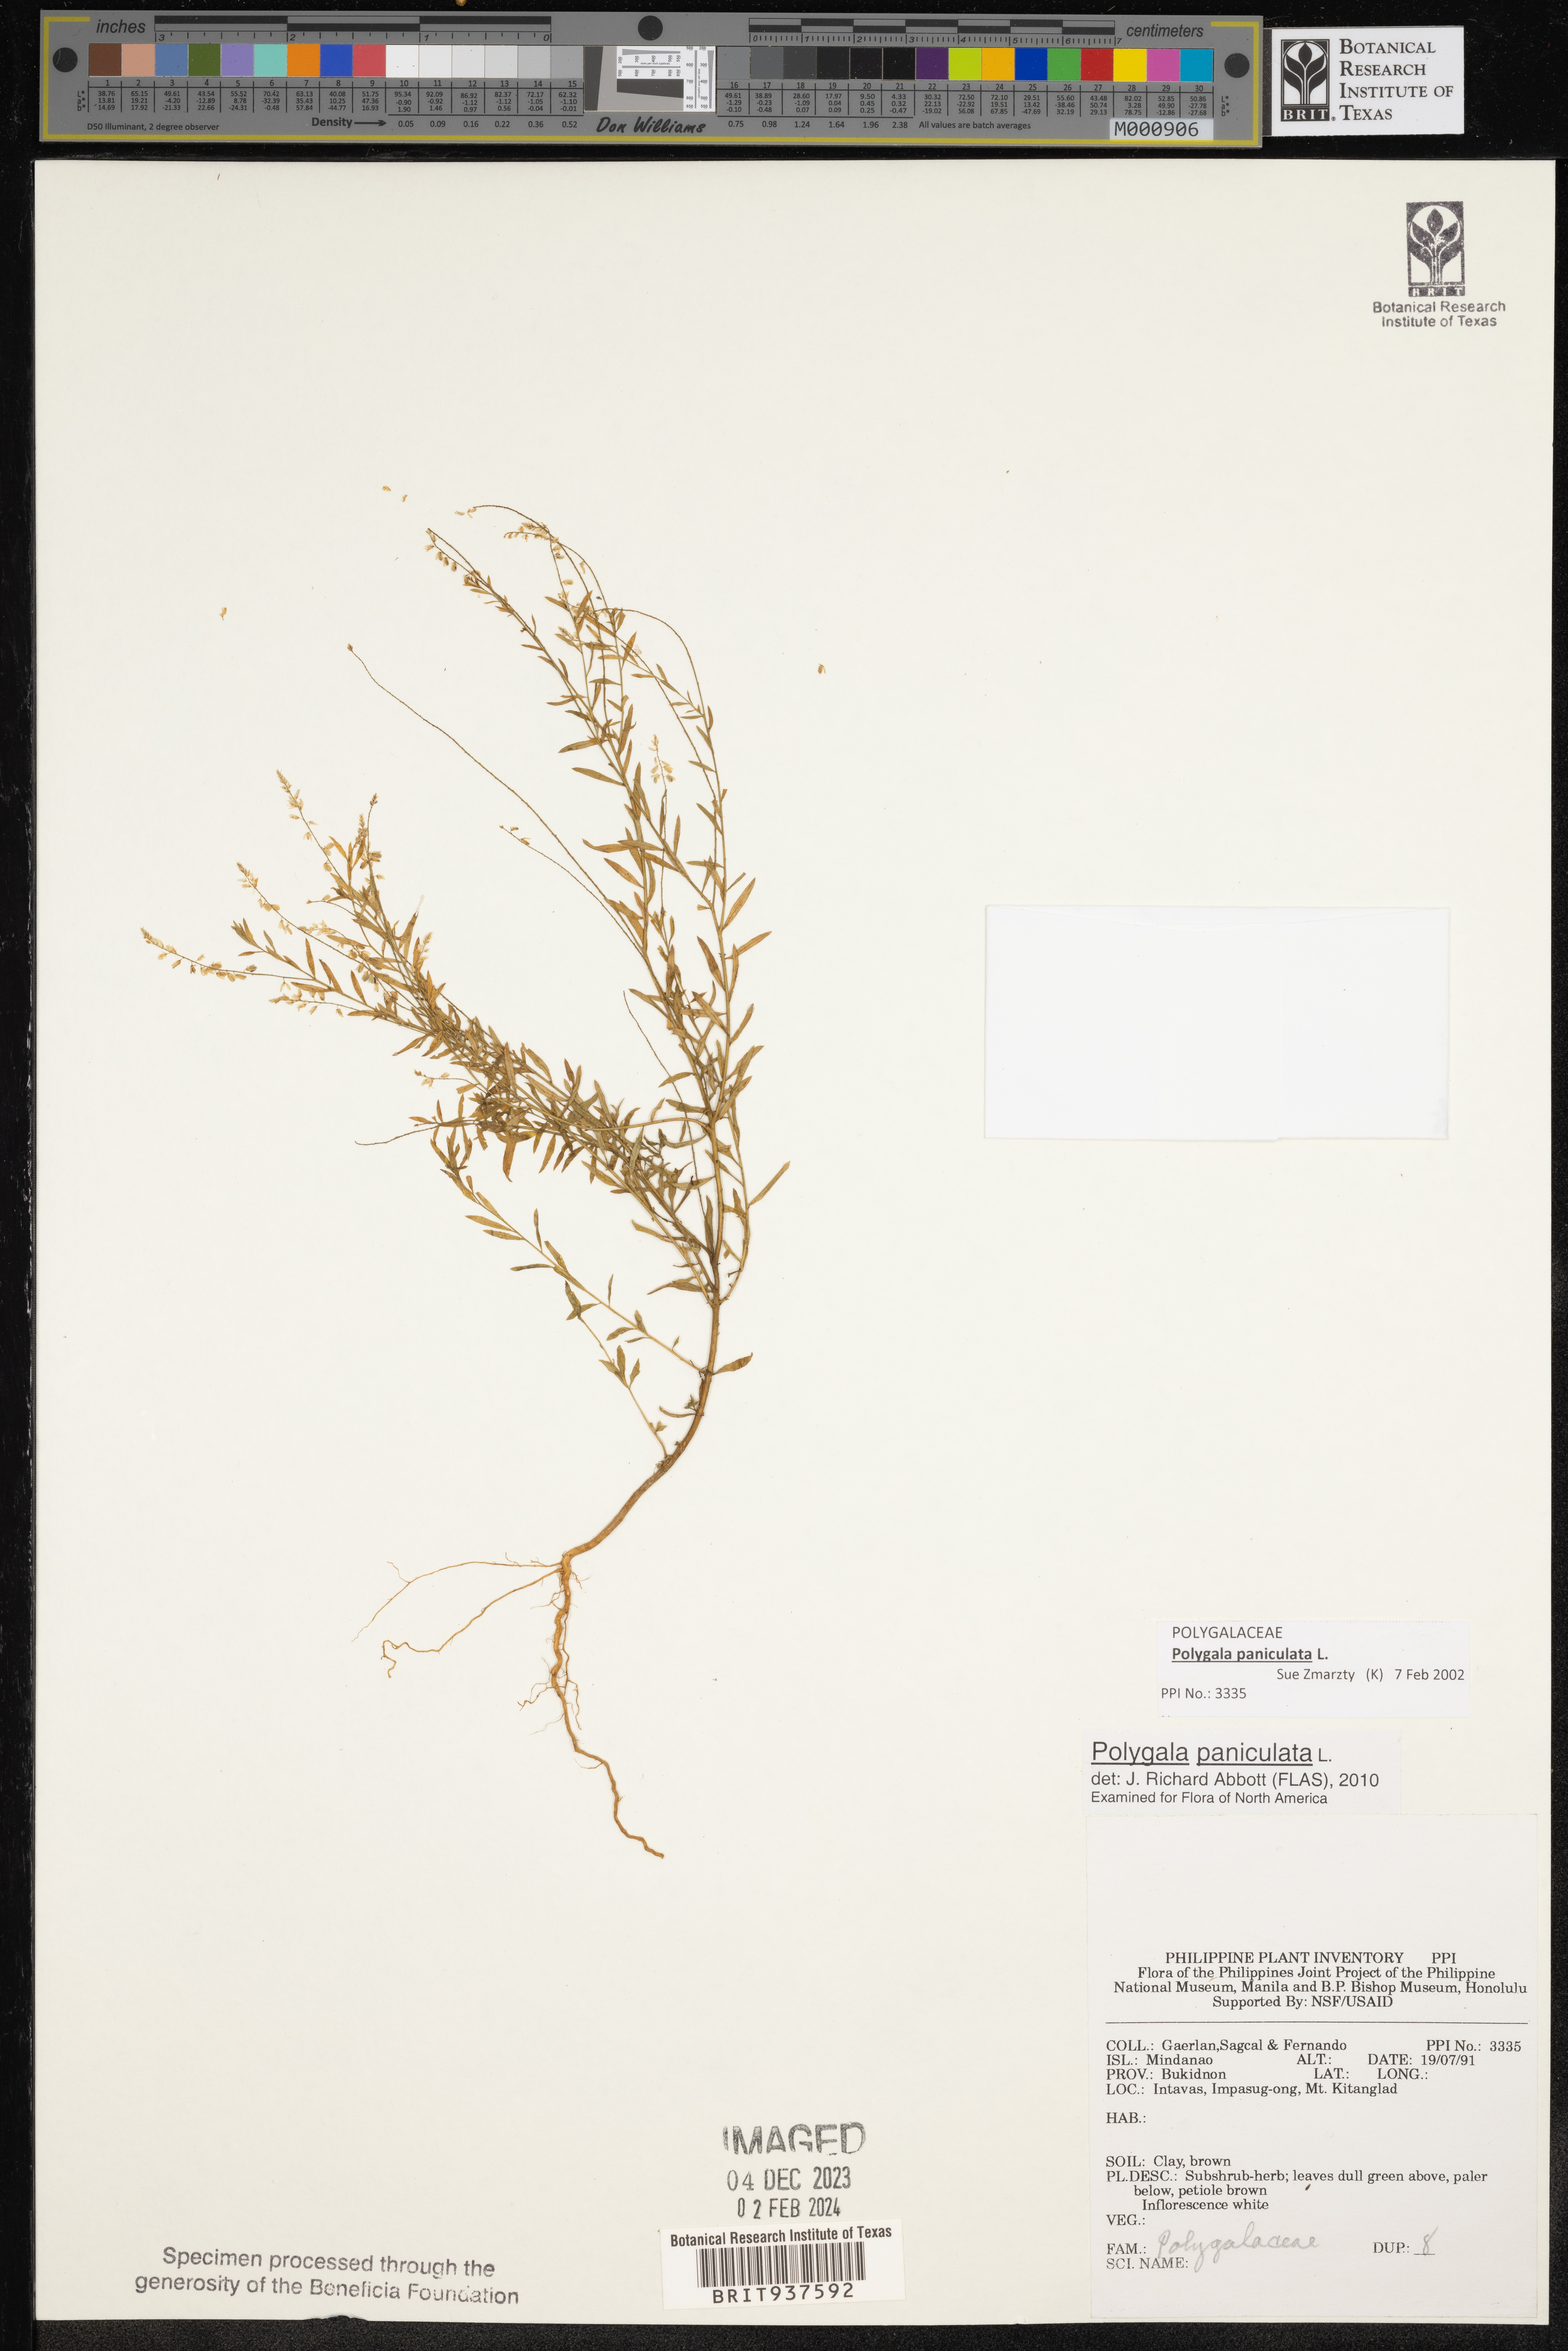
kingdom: Plantae
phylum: Tracheophyta
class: Magnoliopsida
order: Lamiales
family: Acanthaceae
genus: Adhatoda
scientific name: Adhatoda
